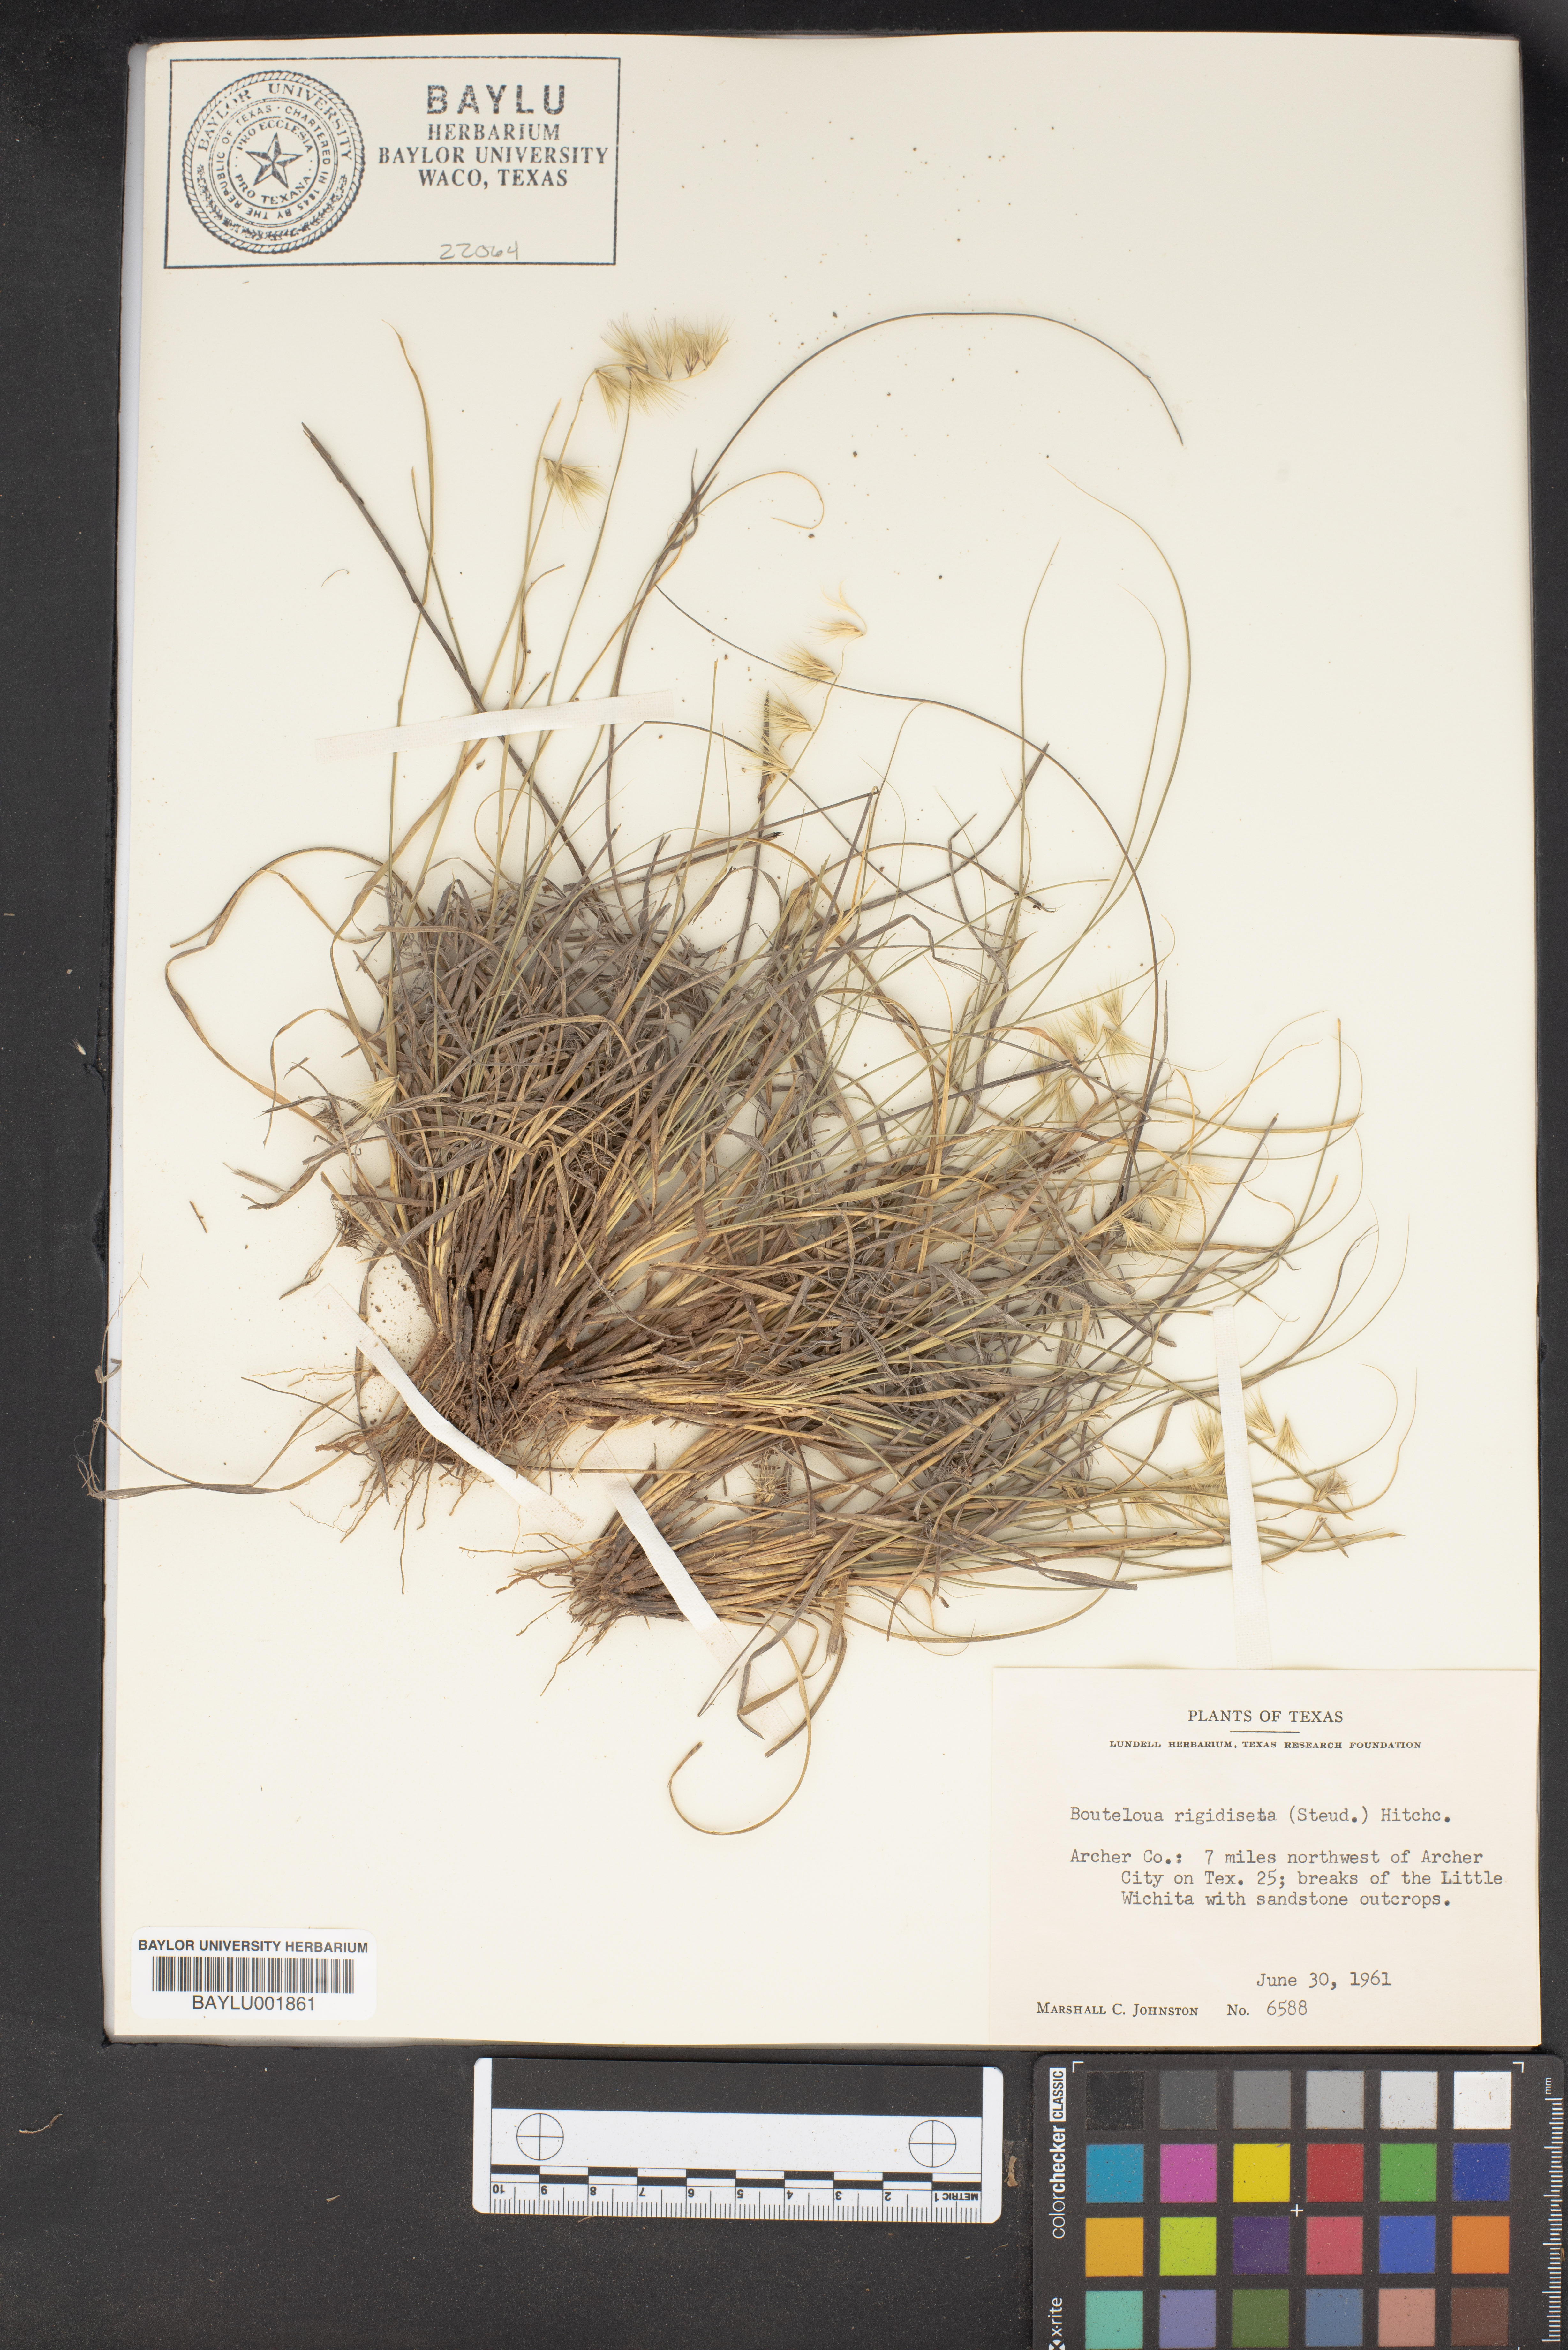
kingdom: Plantae
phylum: Tracheophyta
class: Liliopsida
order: Poales
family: Poaceae
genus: Bouteloua
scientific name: Bouteloua rigidiseta
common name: Texas grama
